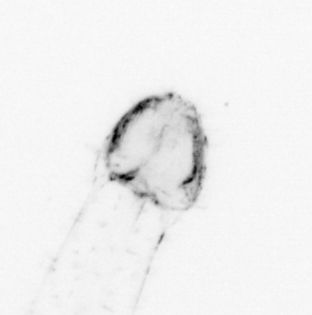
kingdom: Animalia
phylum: Chaetognatha
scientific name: Chaetognatha
